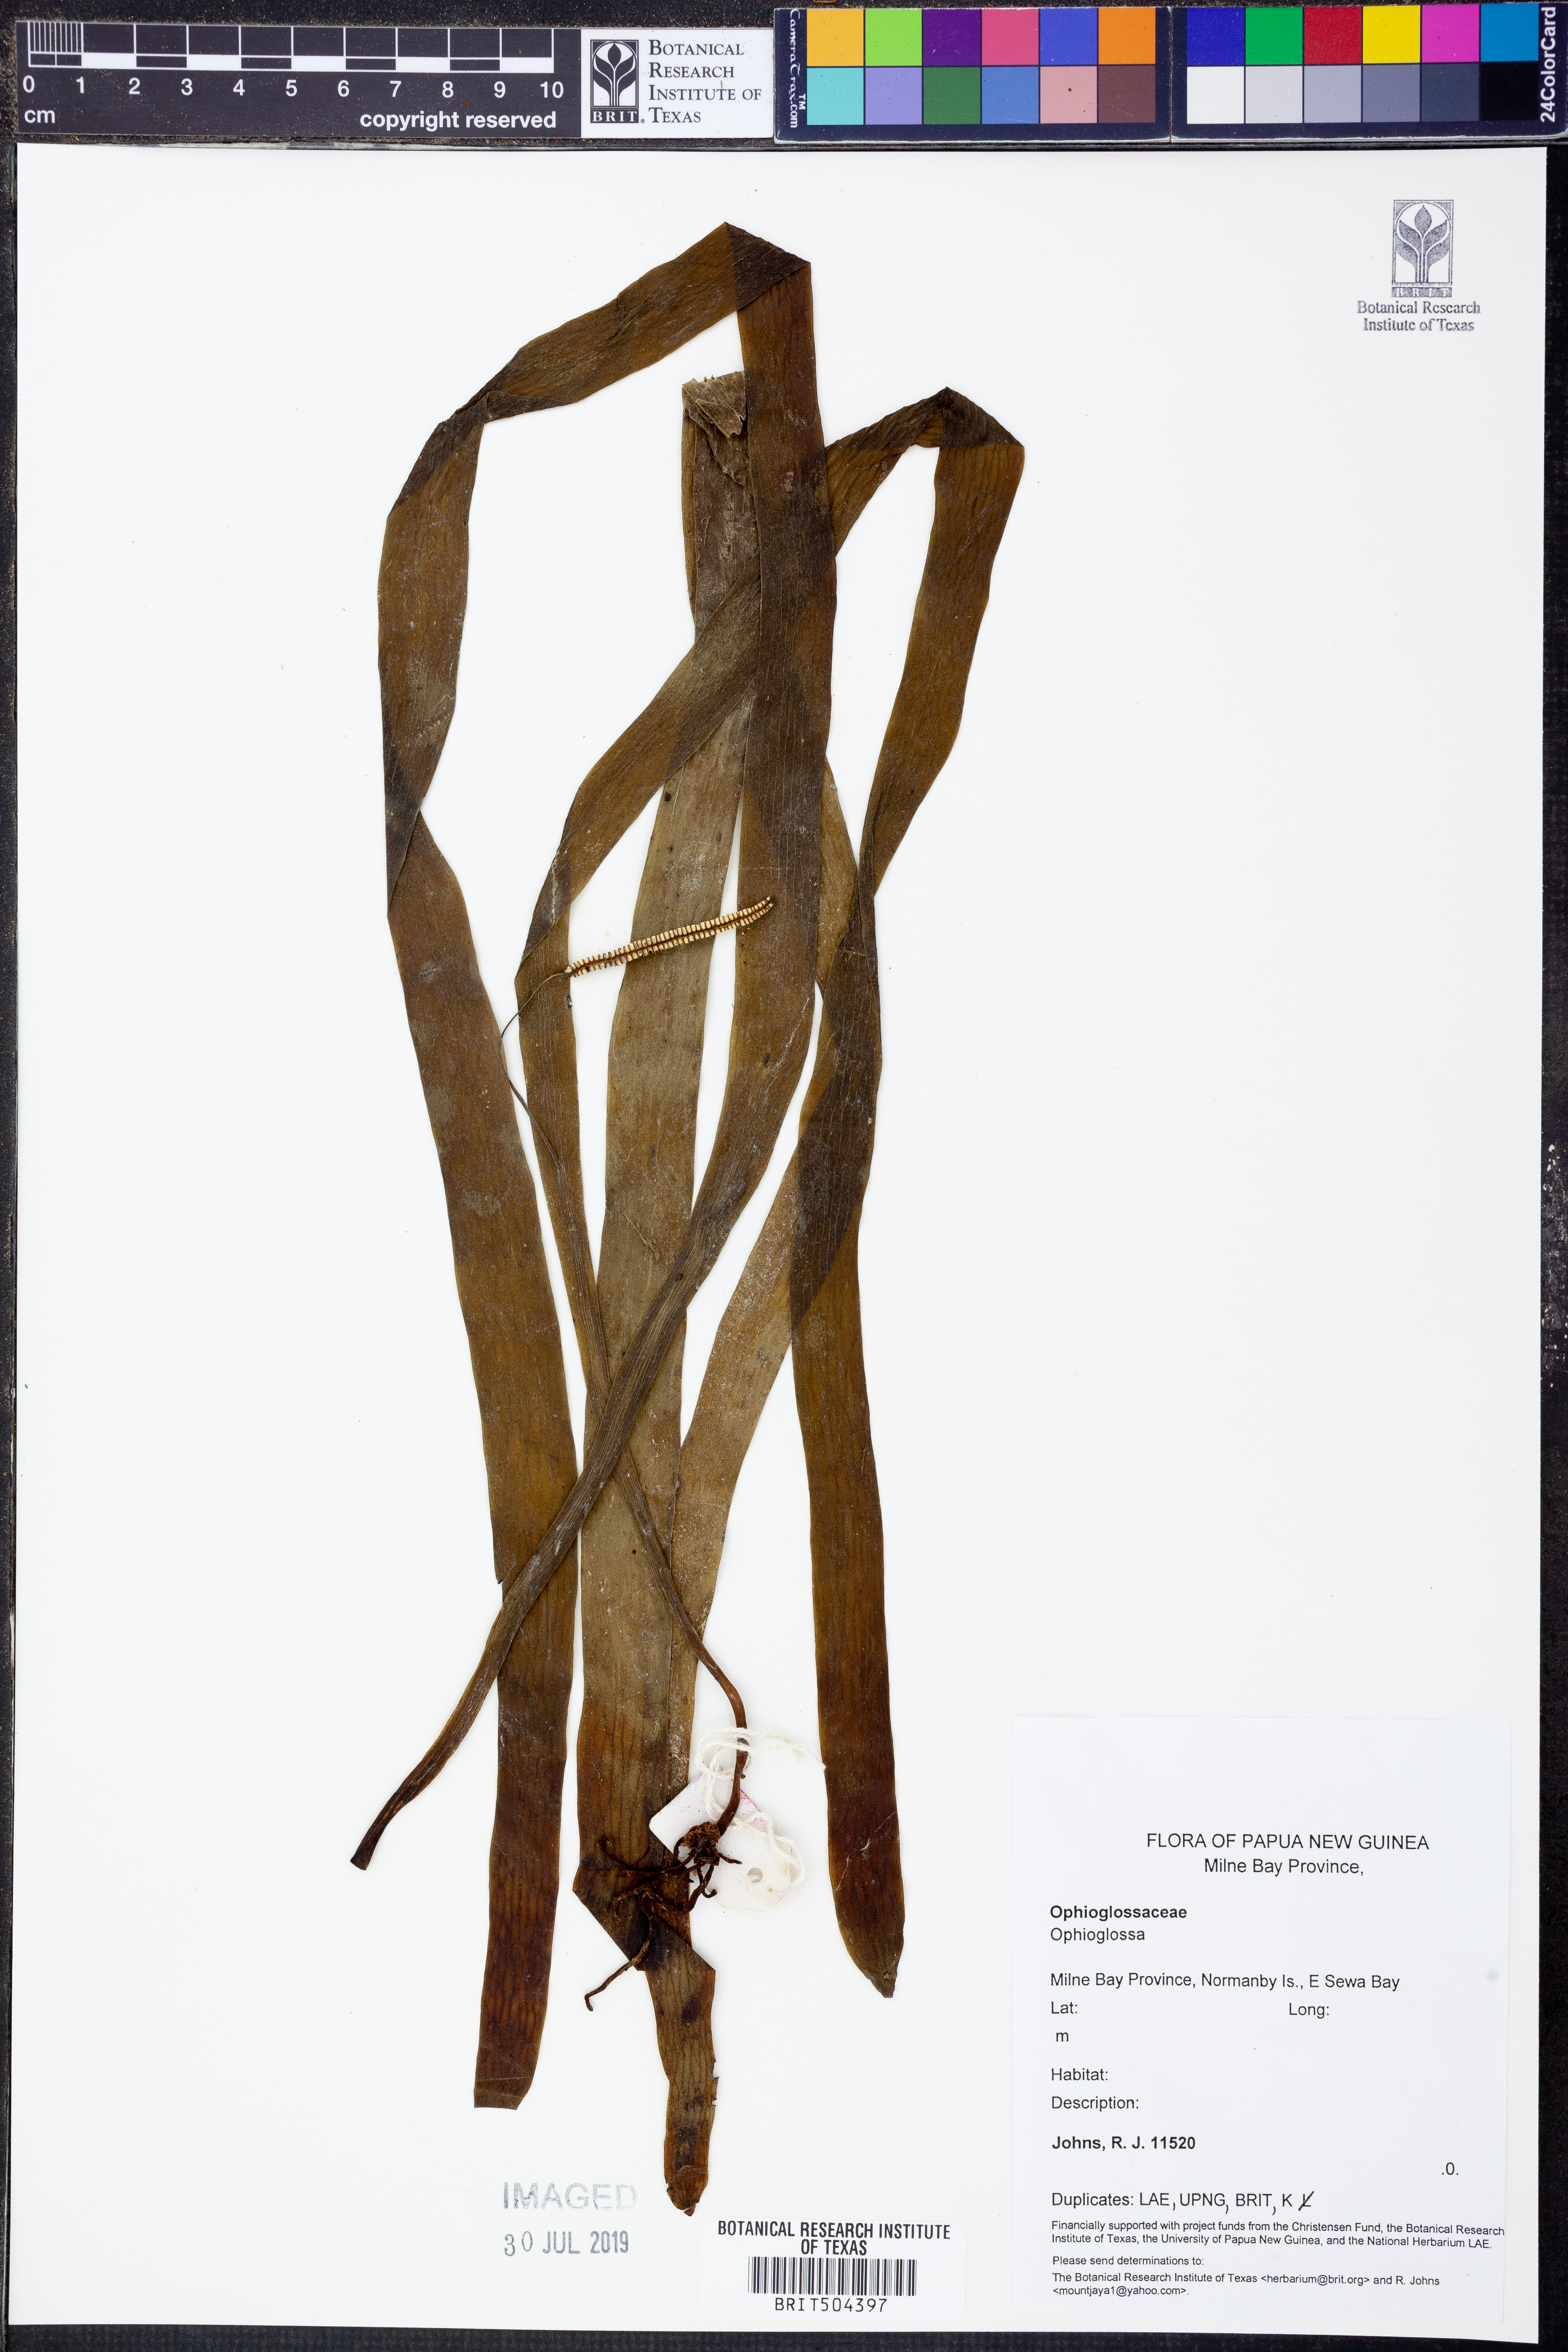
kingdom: Plantae
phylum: Tracheophyta
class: Polypodiopsida
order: Ophioglossales
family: Ophioglossaceae
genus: Ophioglossum
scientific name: Ophioglossum
